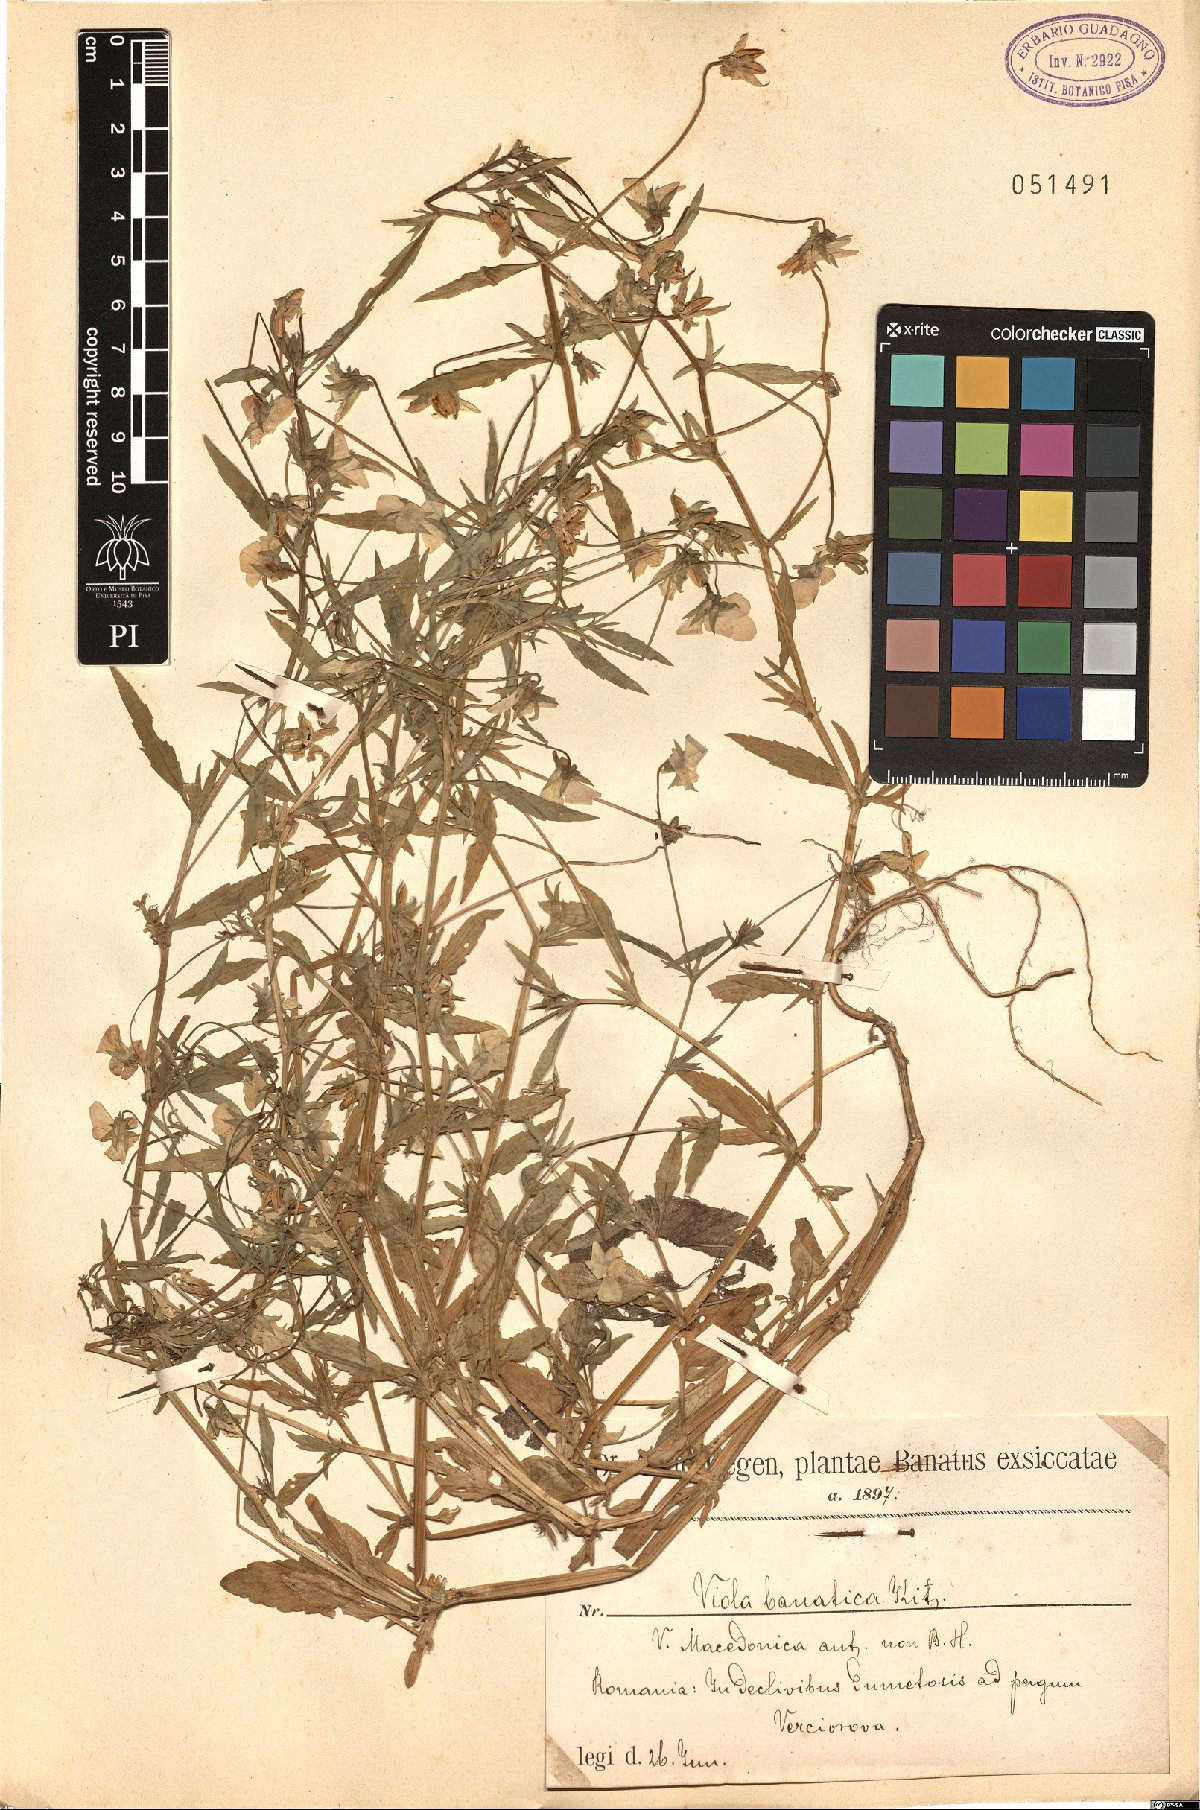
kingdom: Plantae
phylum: Tracheophyta
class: Magnoliopsida
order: Malpighiales
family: Violaceae
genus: Viola
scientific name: Viola tricolor
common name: Pansy
